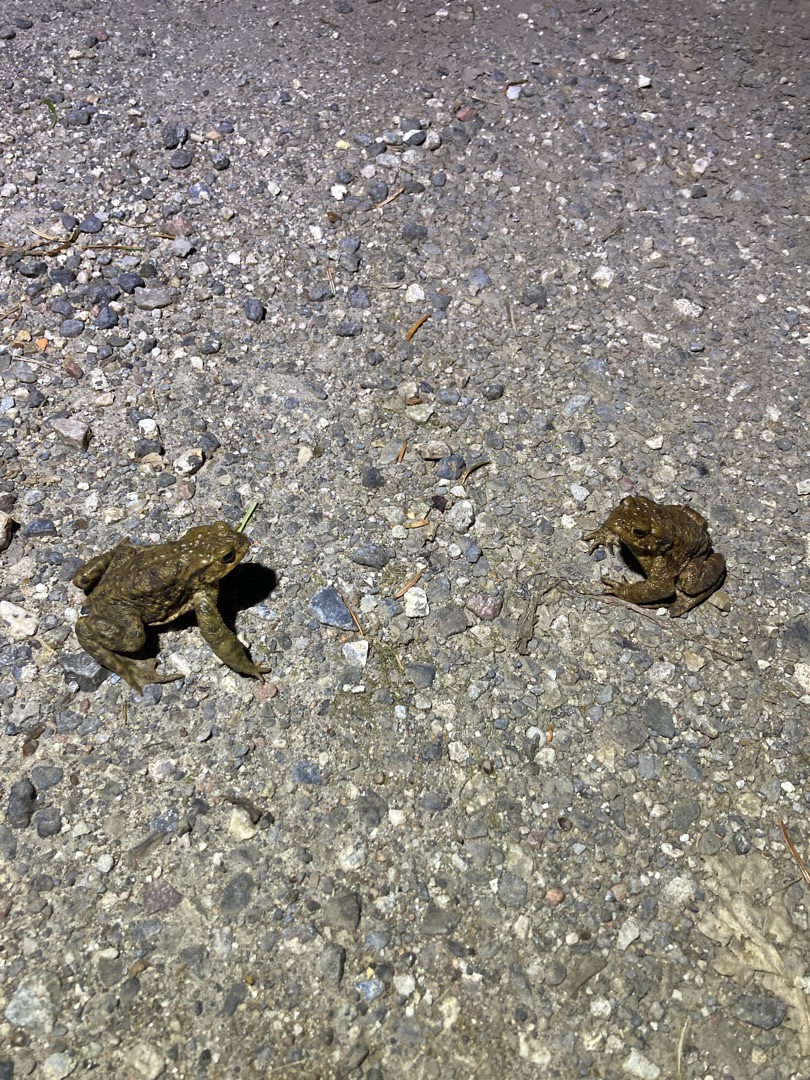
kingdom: Animalia
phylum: Chordata
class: Amphibia
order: Anura
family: Bufonidae
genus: Bufo
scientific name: Bufo bufo
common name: Skrubtudse
